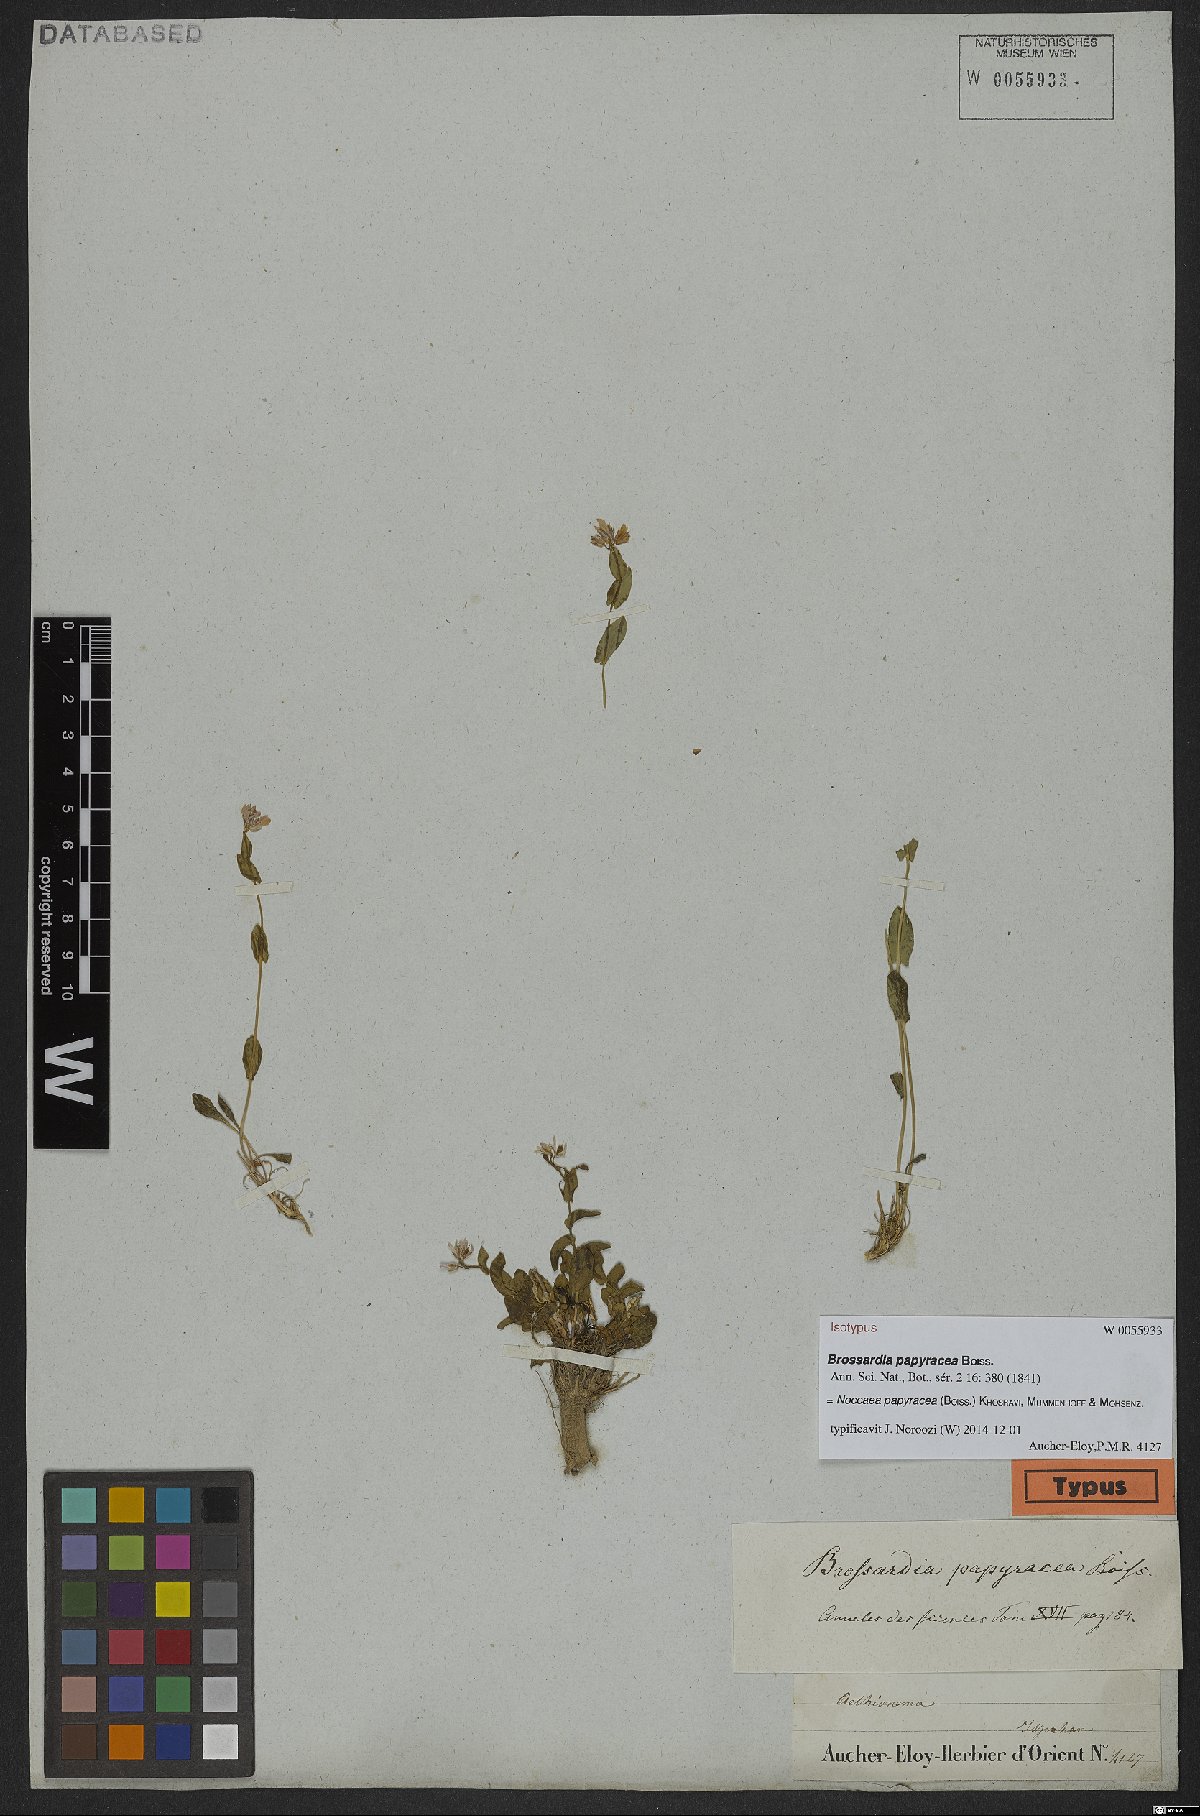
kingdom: Plantae
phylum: Tracheophyta
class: Magnoliopsida
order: Brassicales
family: Brassicaceae
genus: Noccaea
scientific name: Noccaea papyracea
